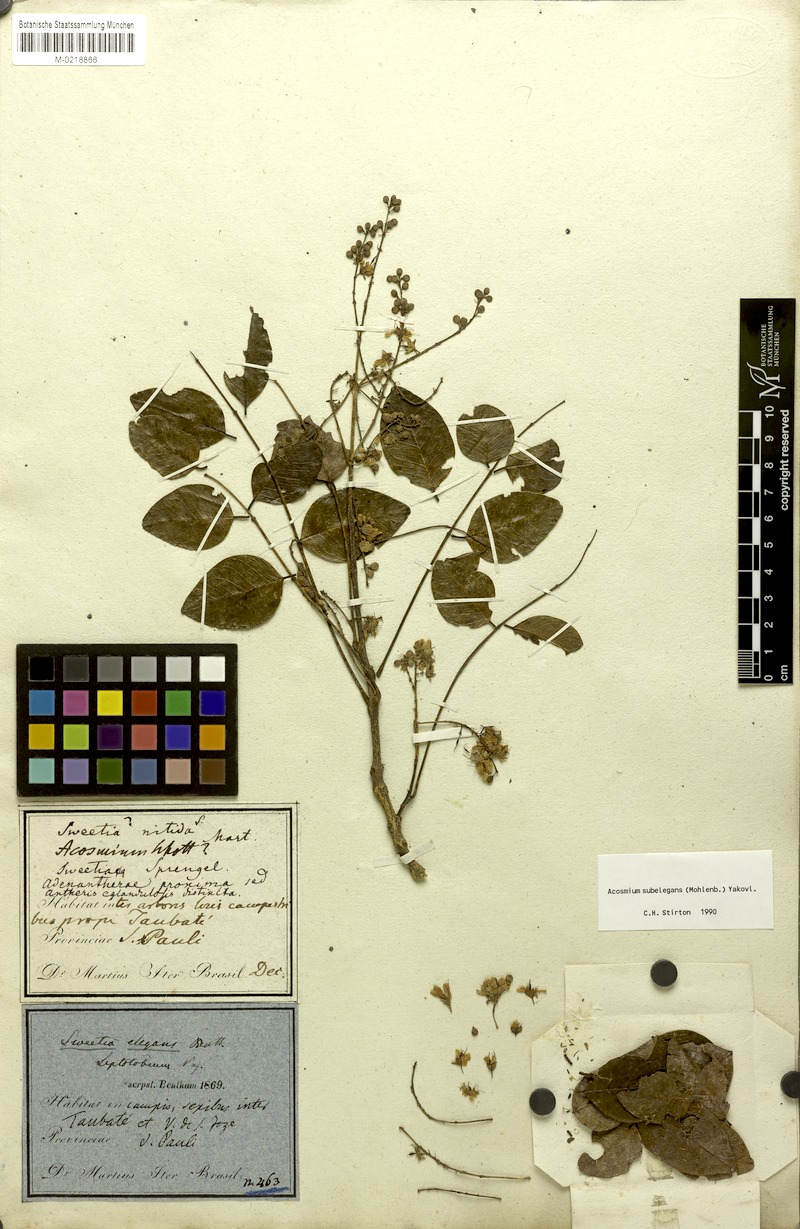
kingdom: Plantae
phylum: Tracheophyta
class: Magnoliopsida
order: Fabales
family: Fabaceae
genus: Leptolobium
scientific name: Leptolobium elegans
